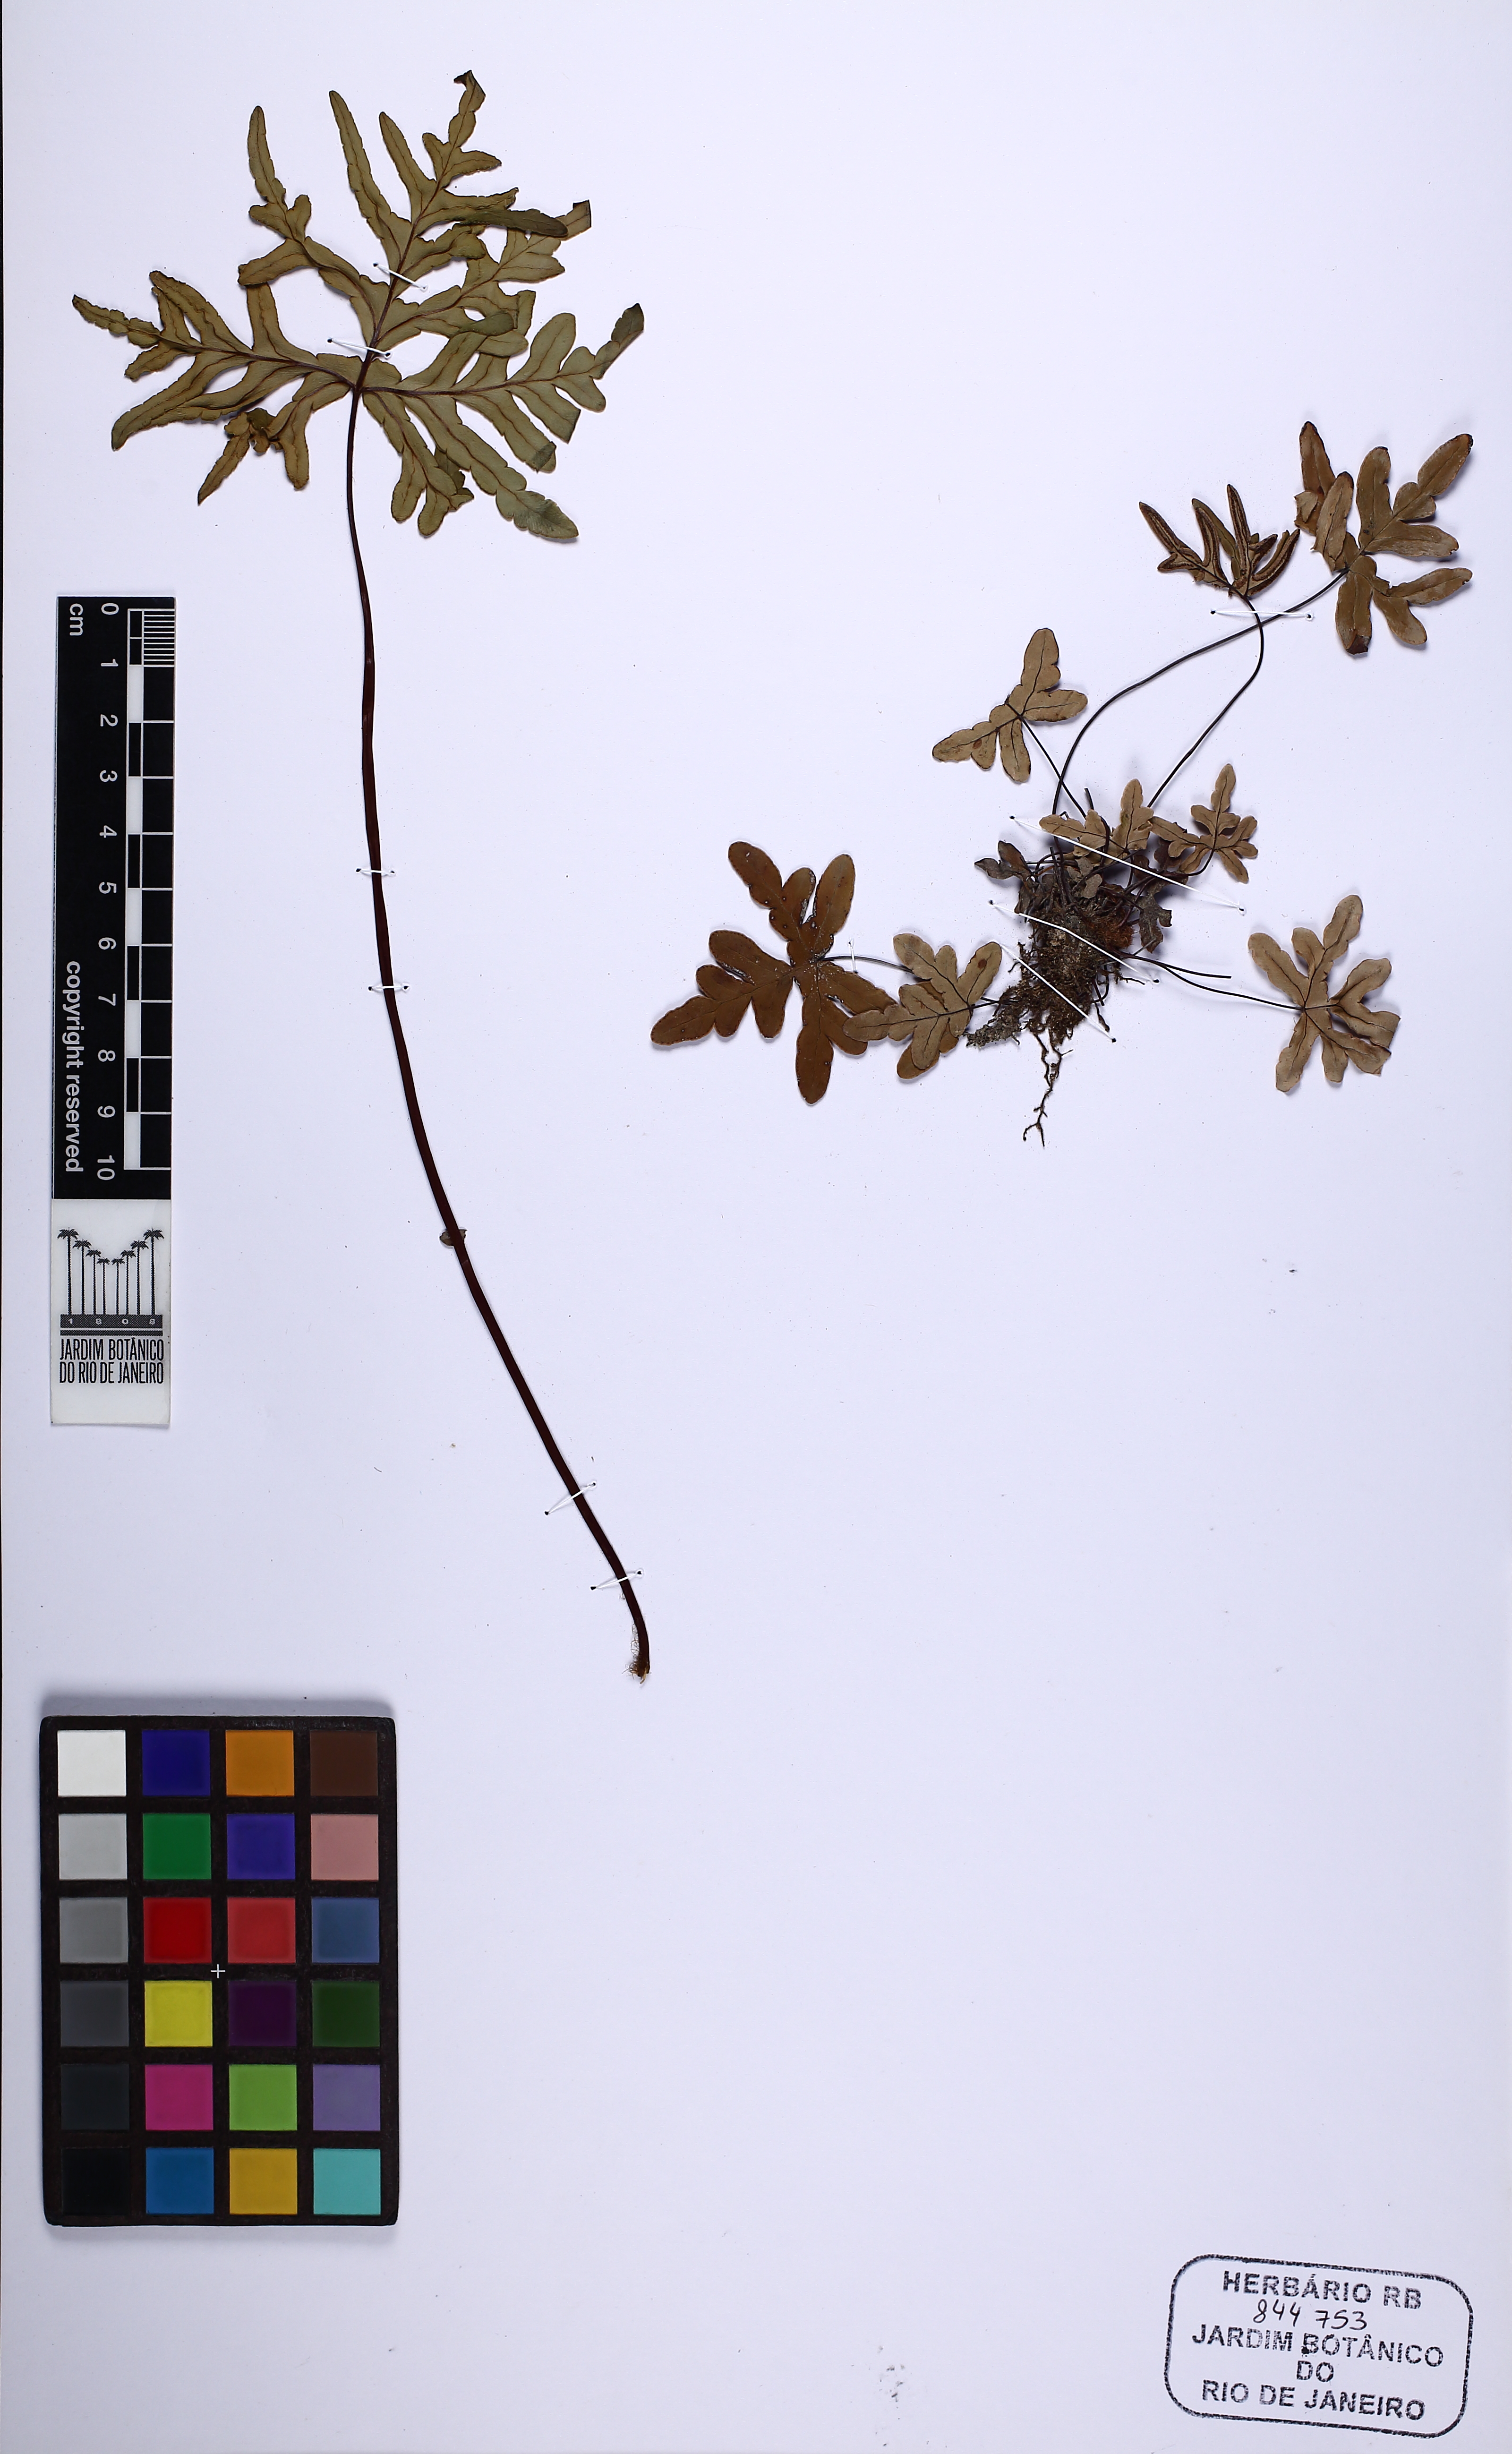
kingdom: Plantae
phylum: Tracheophyta
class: Polypodiopsida
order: Polypodiales
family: Pteridaceae
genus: Lytoneuron
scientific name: Lytoneuron crenulans
